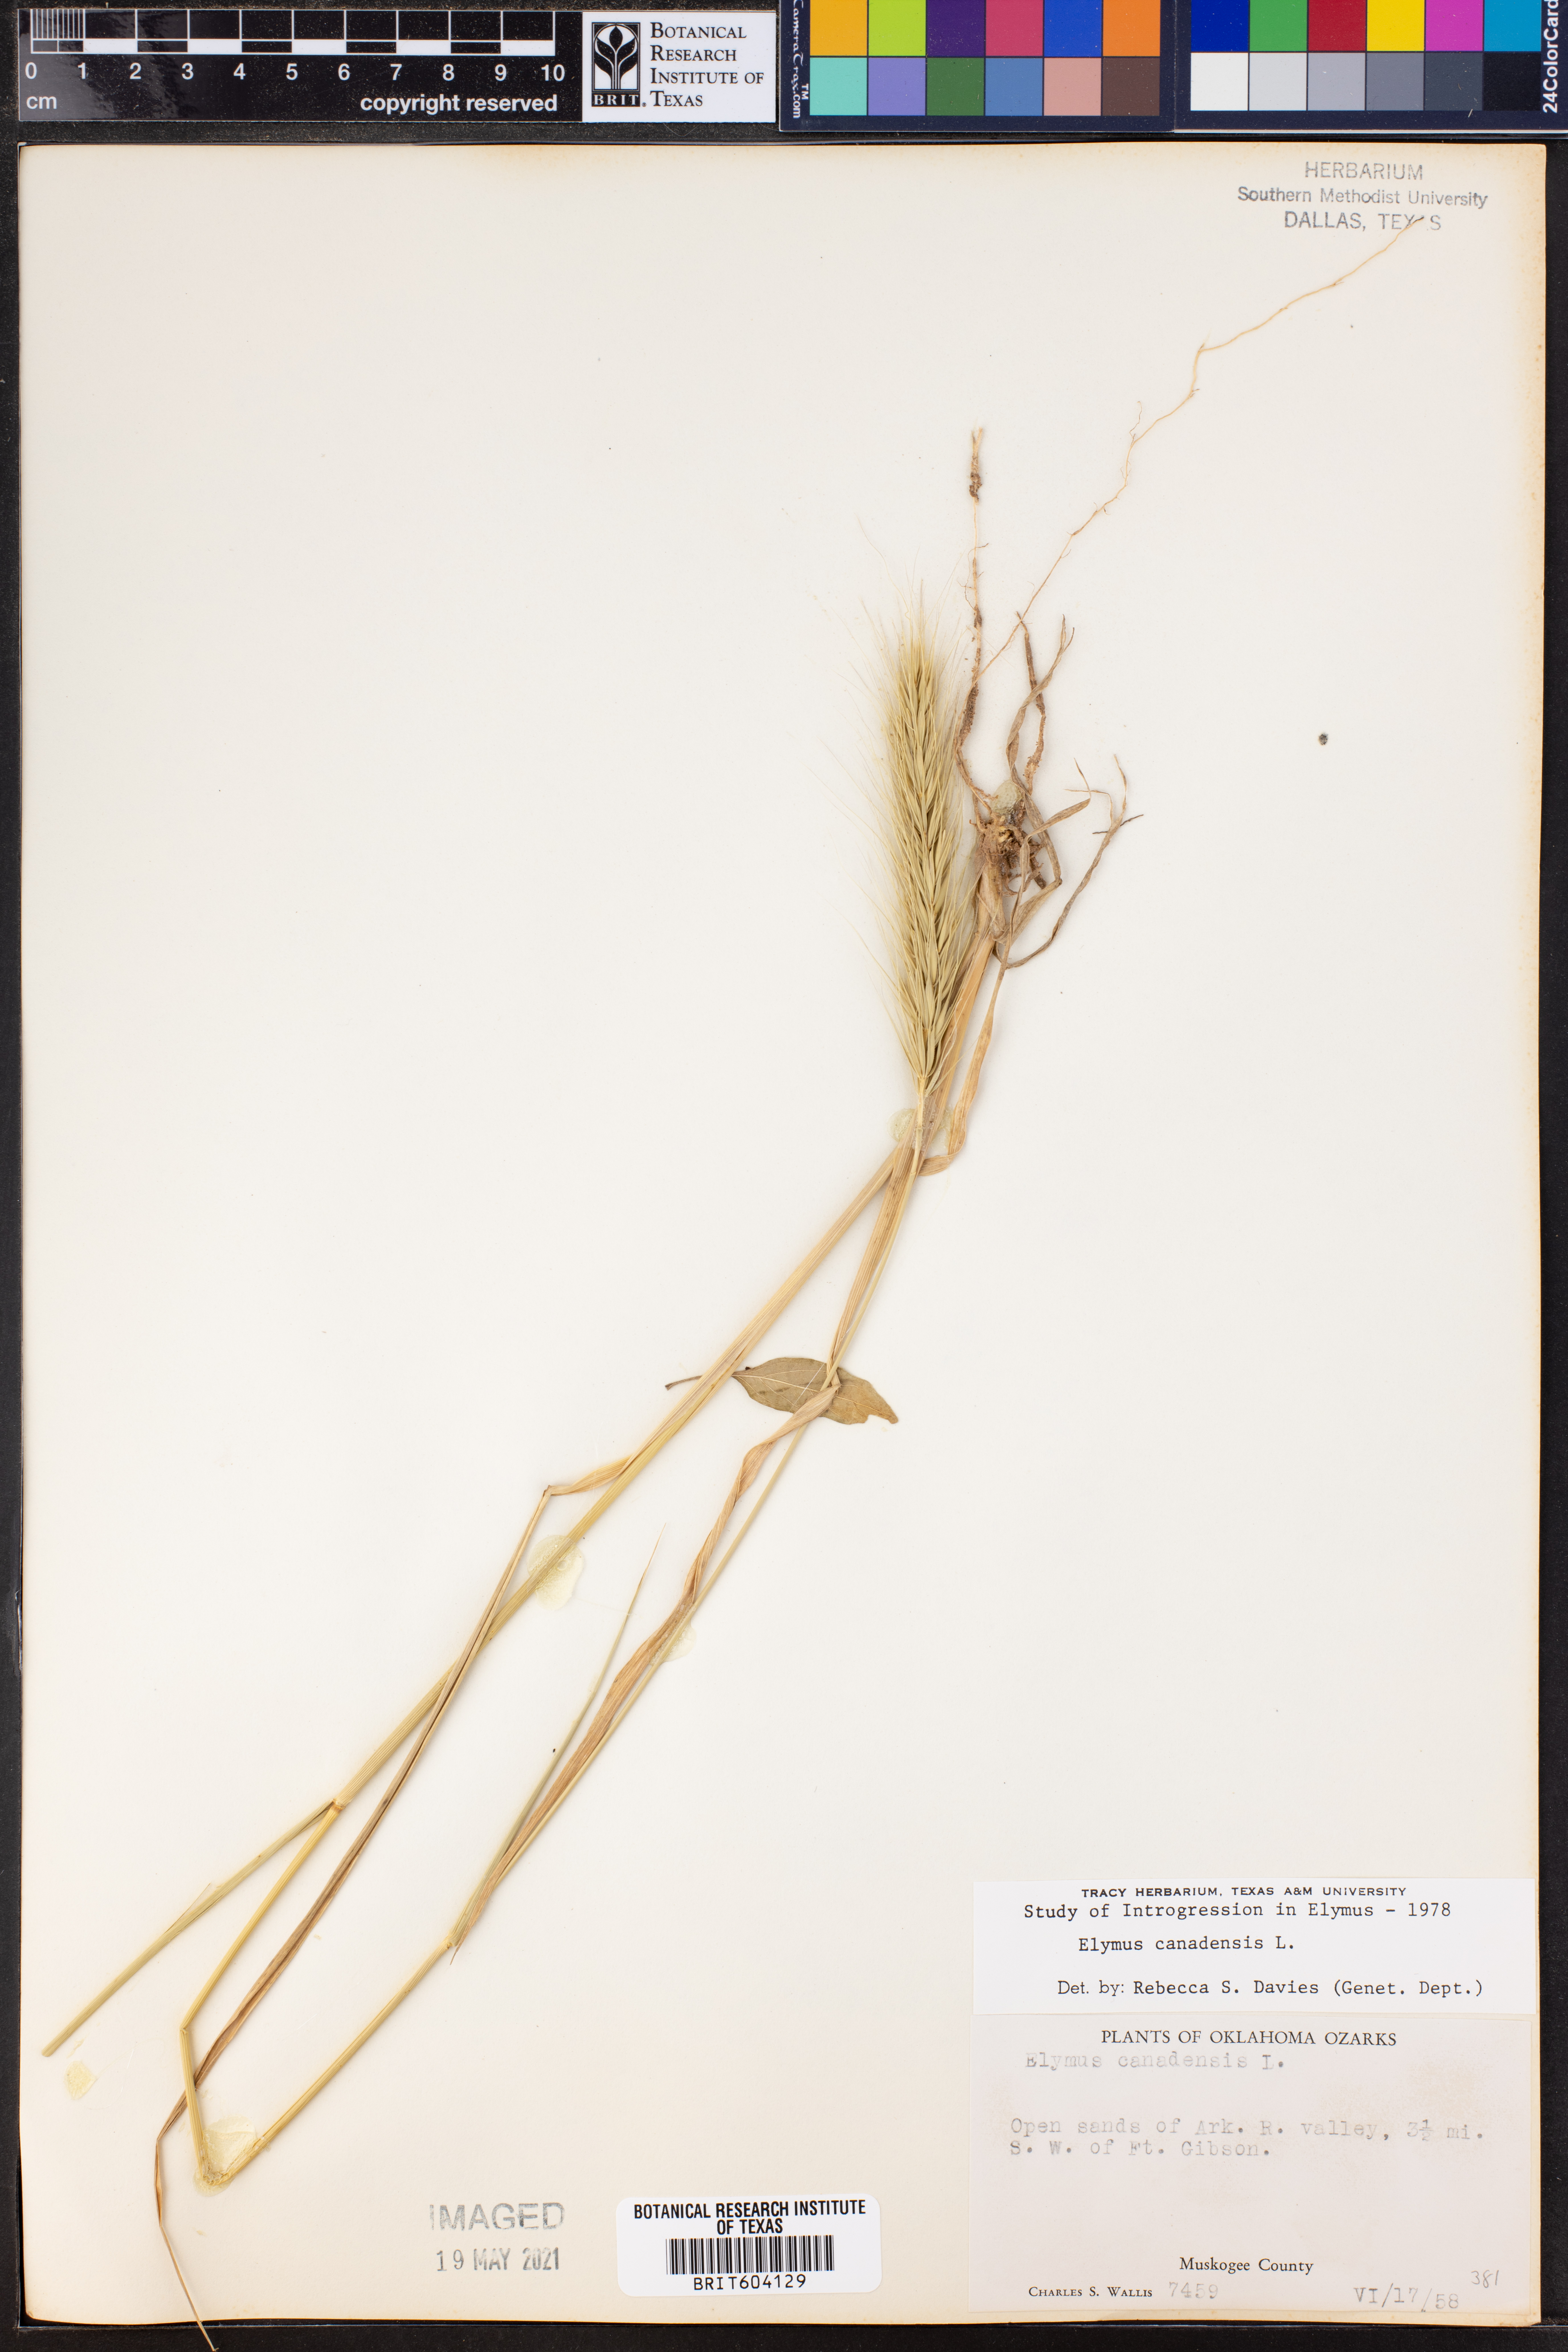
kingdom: Plantae
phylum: Tracheophyta
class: Liliopsida
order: Poales
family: Poaceae
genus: Elymus
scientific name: Elymus canadensis
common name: Canada wild rye
